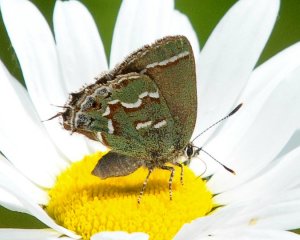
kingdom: Animalia
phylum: Arthropoda
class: Insecta
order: Lepidoptera
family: Lycaenidae
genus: Mitoura
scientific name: Mitoura gryneus
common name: Juniper Hairstreak
